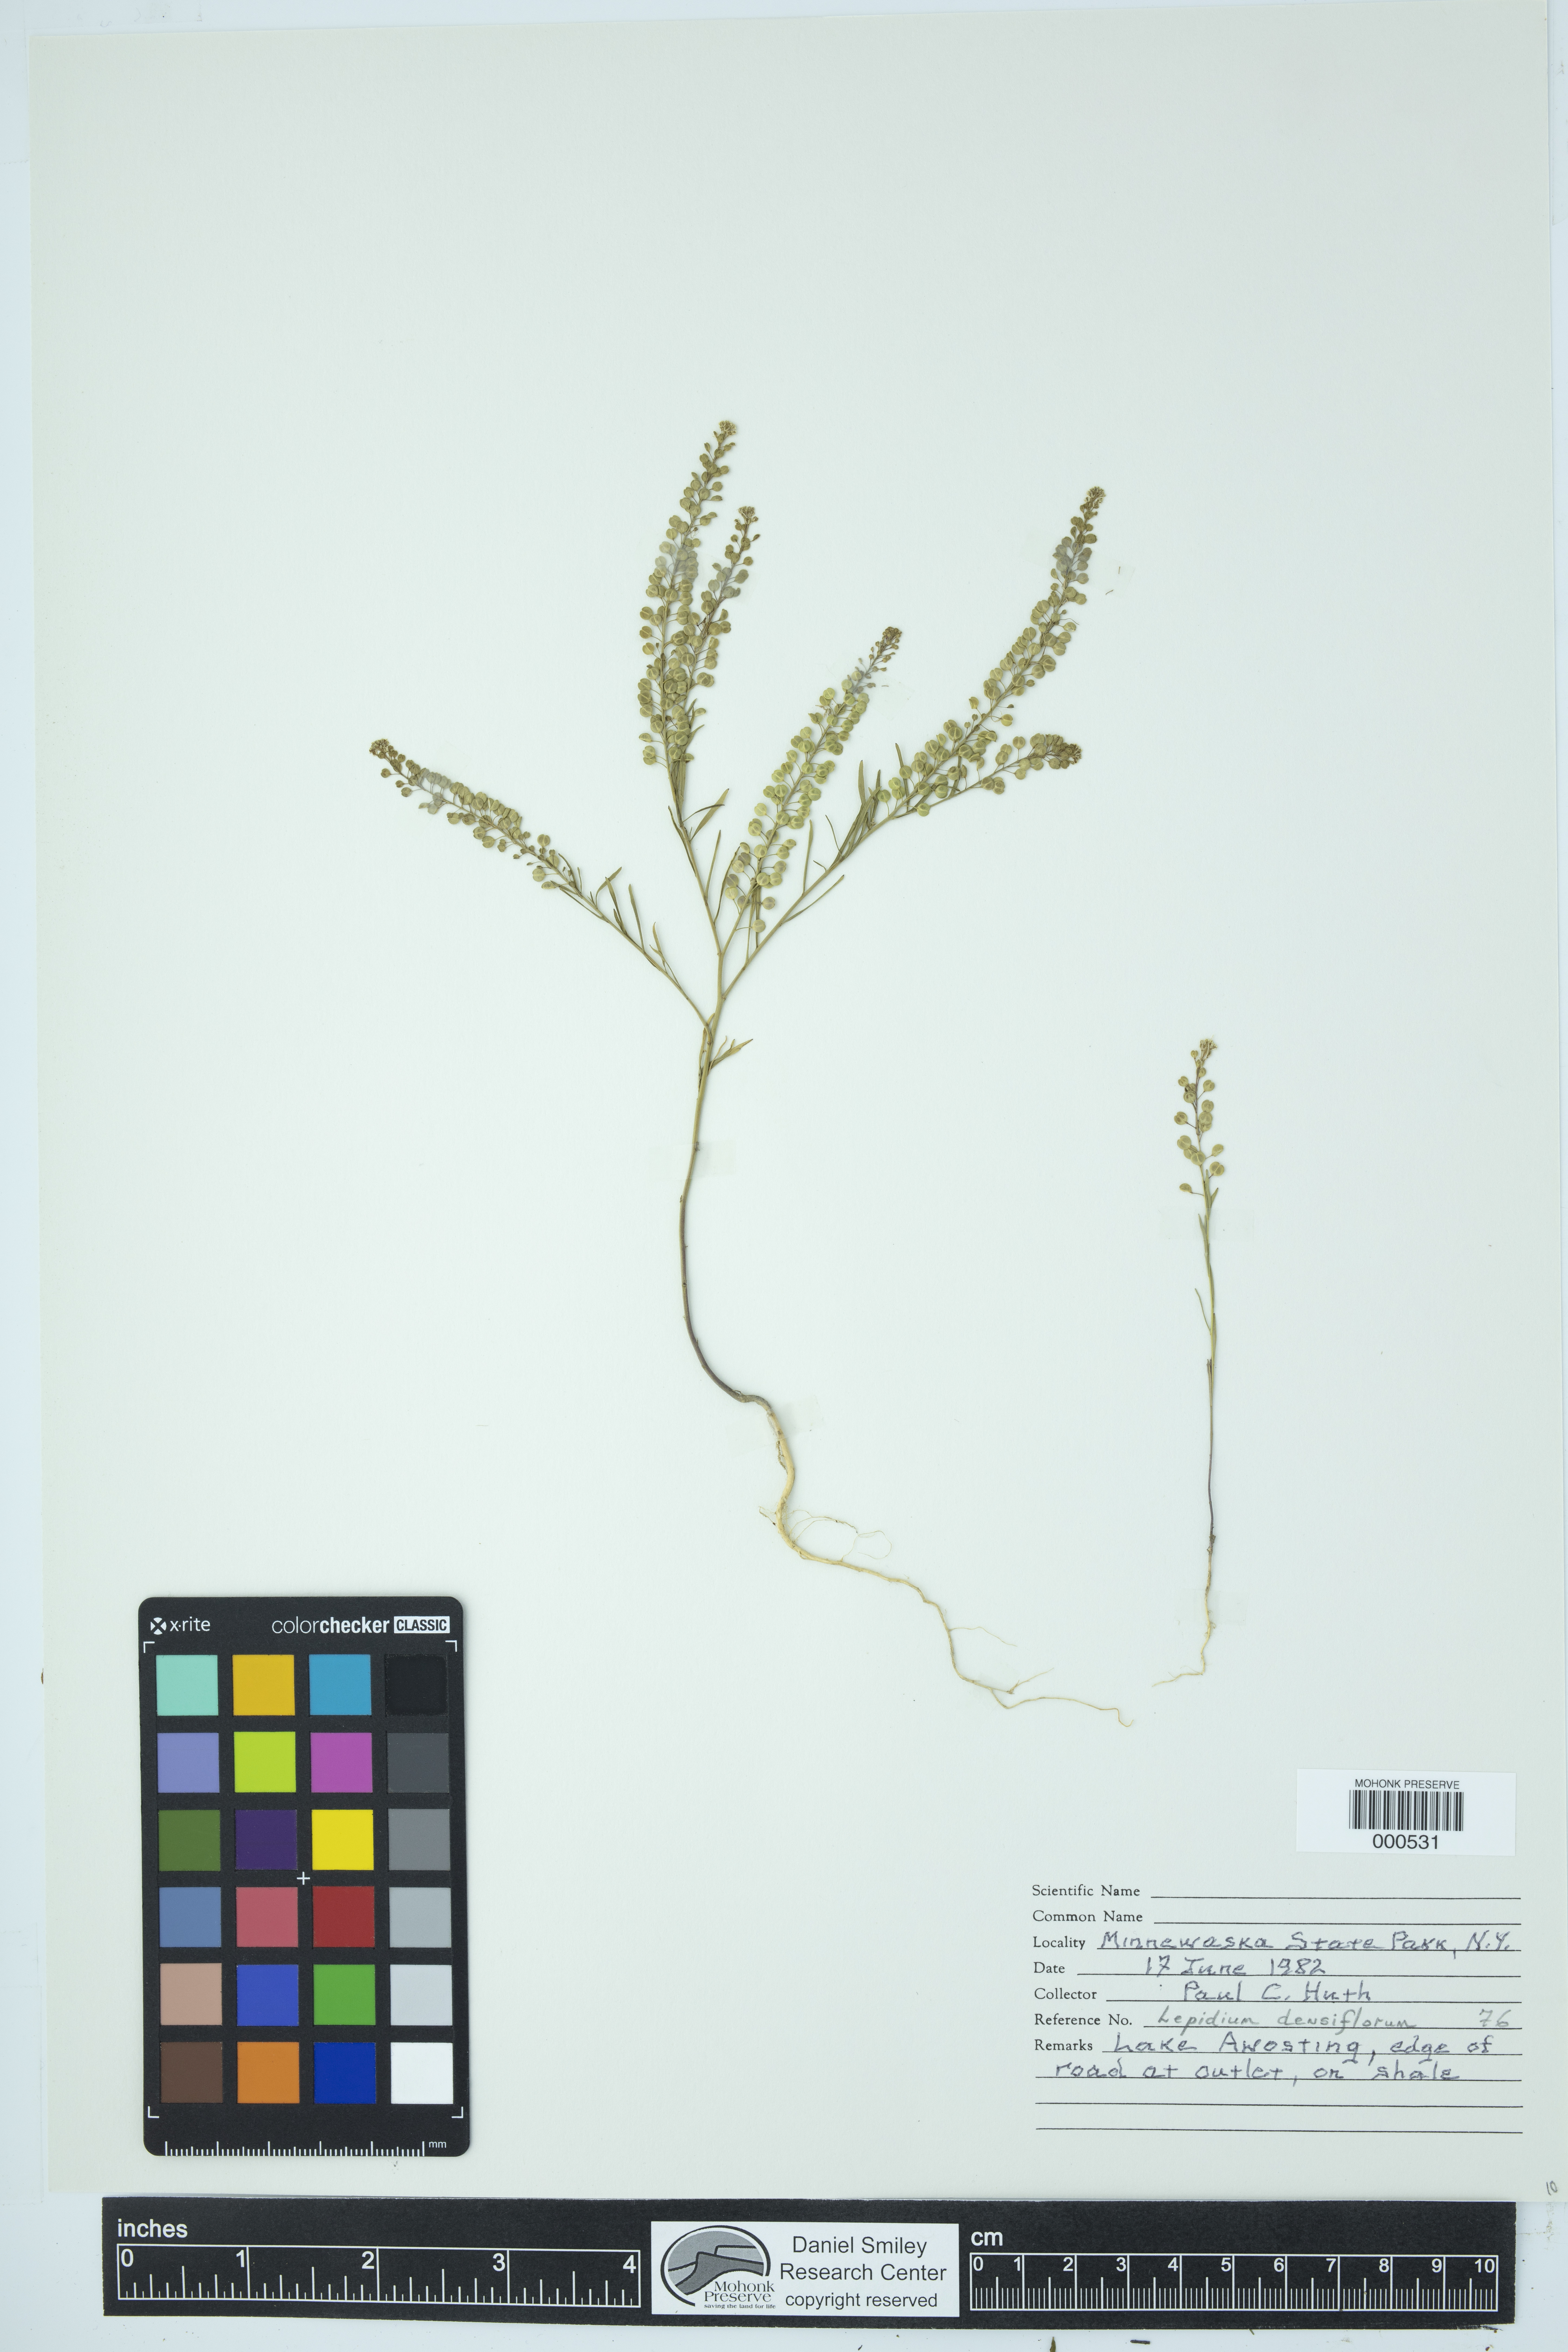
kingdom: Plantae
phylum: Tracheophyta
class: Magnoliopsida
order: Brassicales
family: Brassicaceae
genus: Lepidium
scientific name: Lepidium densiflorum
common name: Miner's pepperwort
